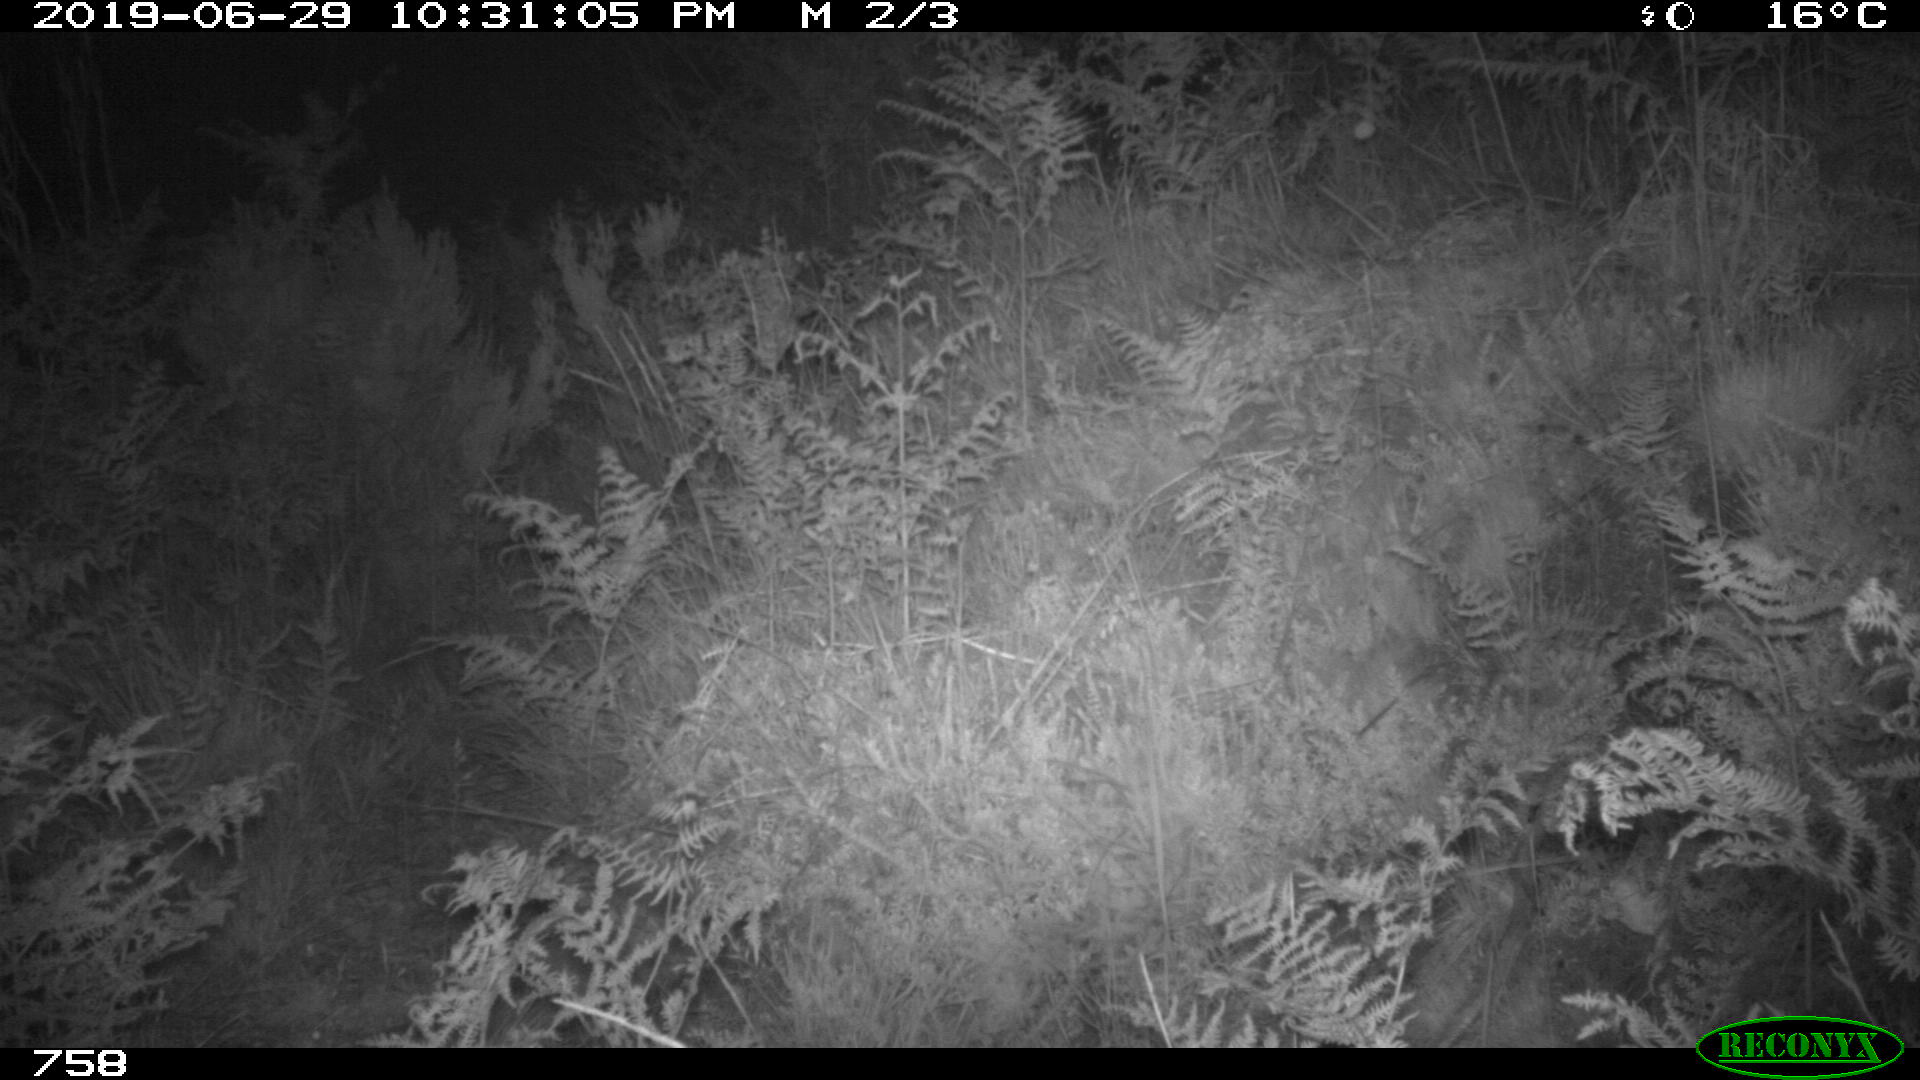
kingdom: Animalia
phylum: Chordata
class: Mammalia
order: Artiodactyla
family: Cervidae
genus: Capreolus
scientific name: Capreolus capreolus
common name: Western roe deer
